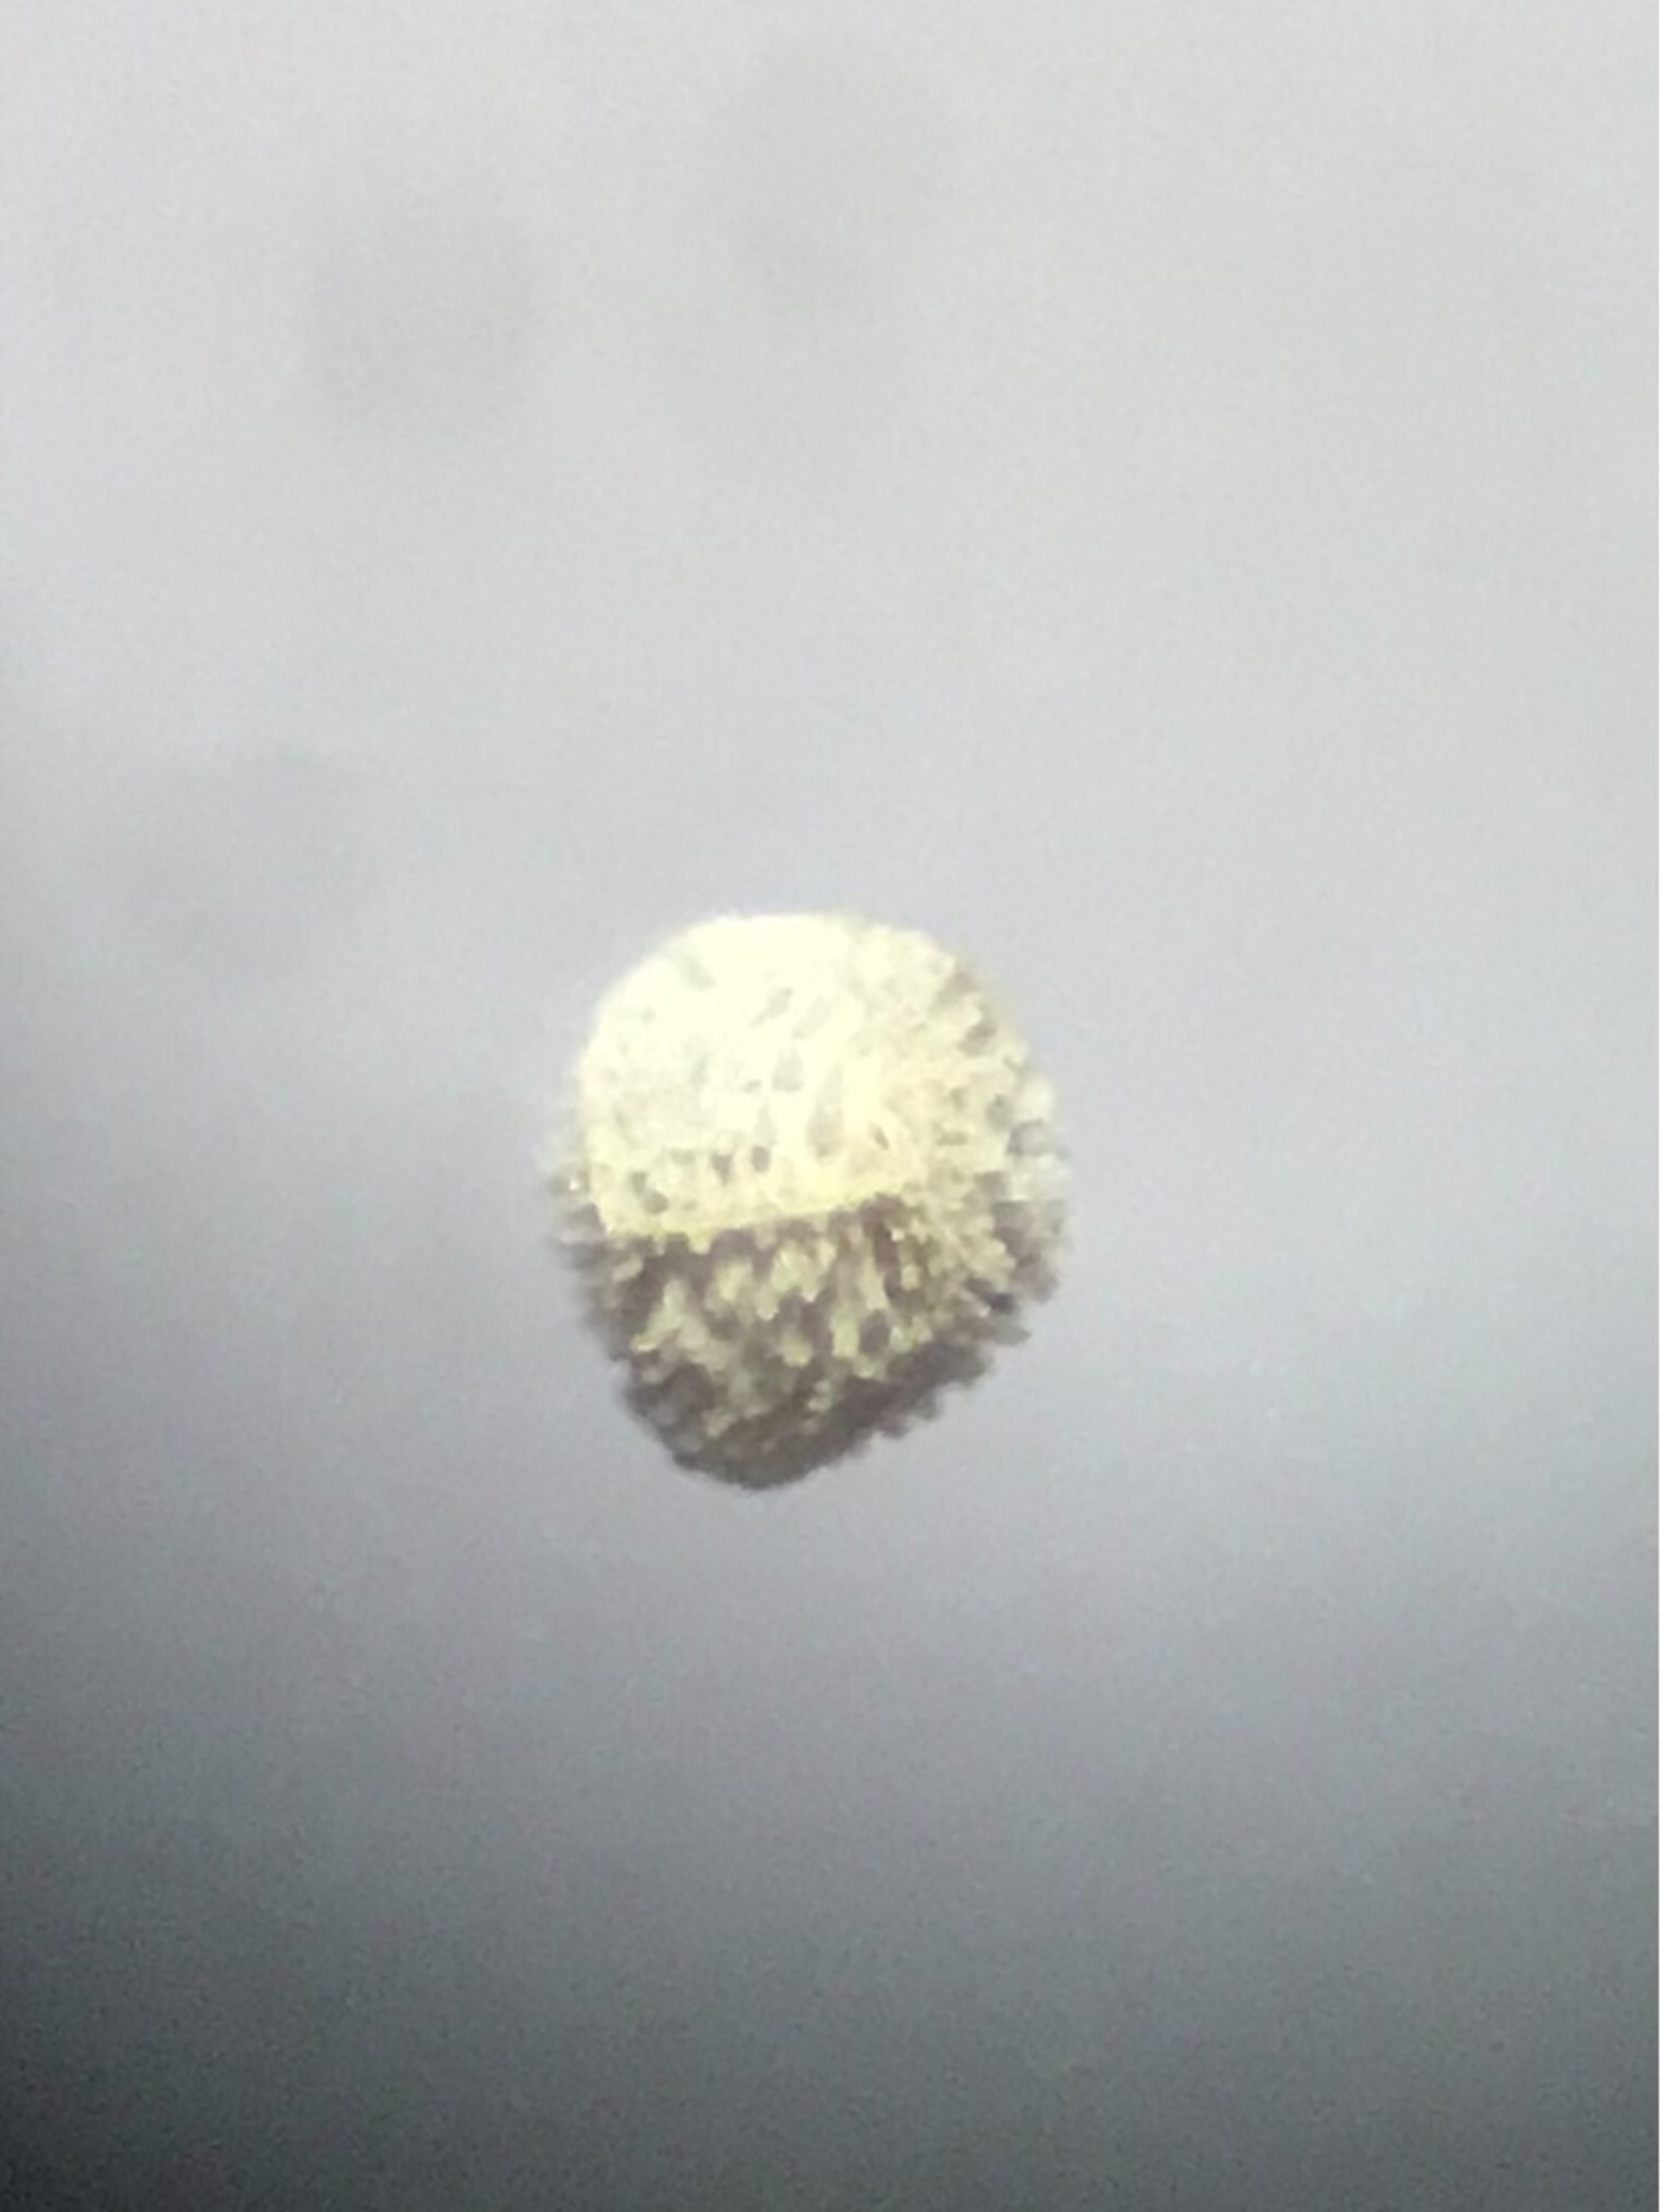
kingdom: Plantae
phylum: Tracheophyta
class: Lycopodiopsida
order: Isoetales
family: Isoetaceae
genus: Isoetes
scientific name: Isoetes echinospora
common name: Gulgrøn brasenføde
